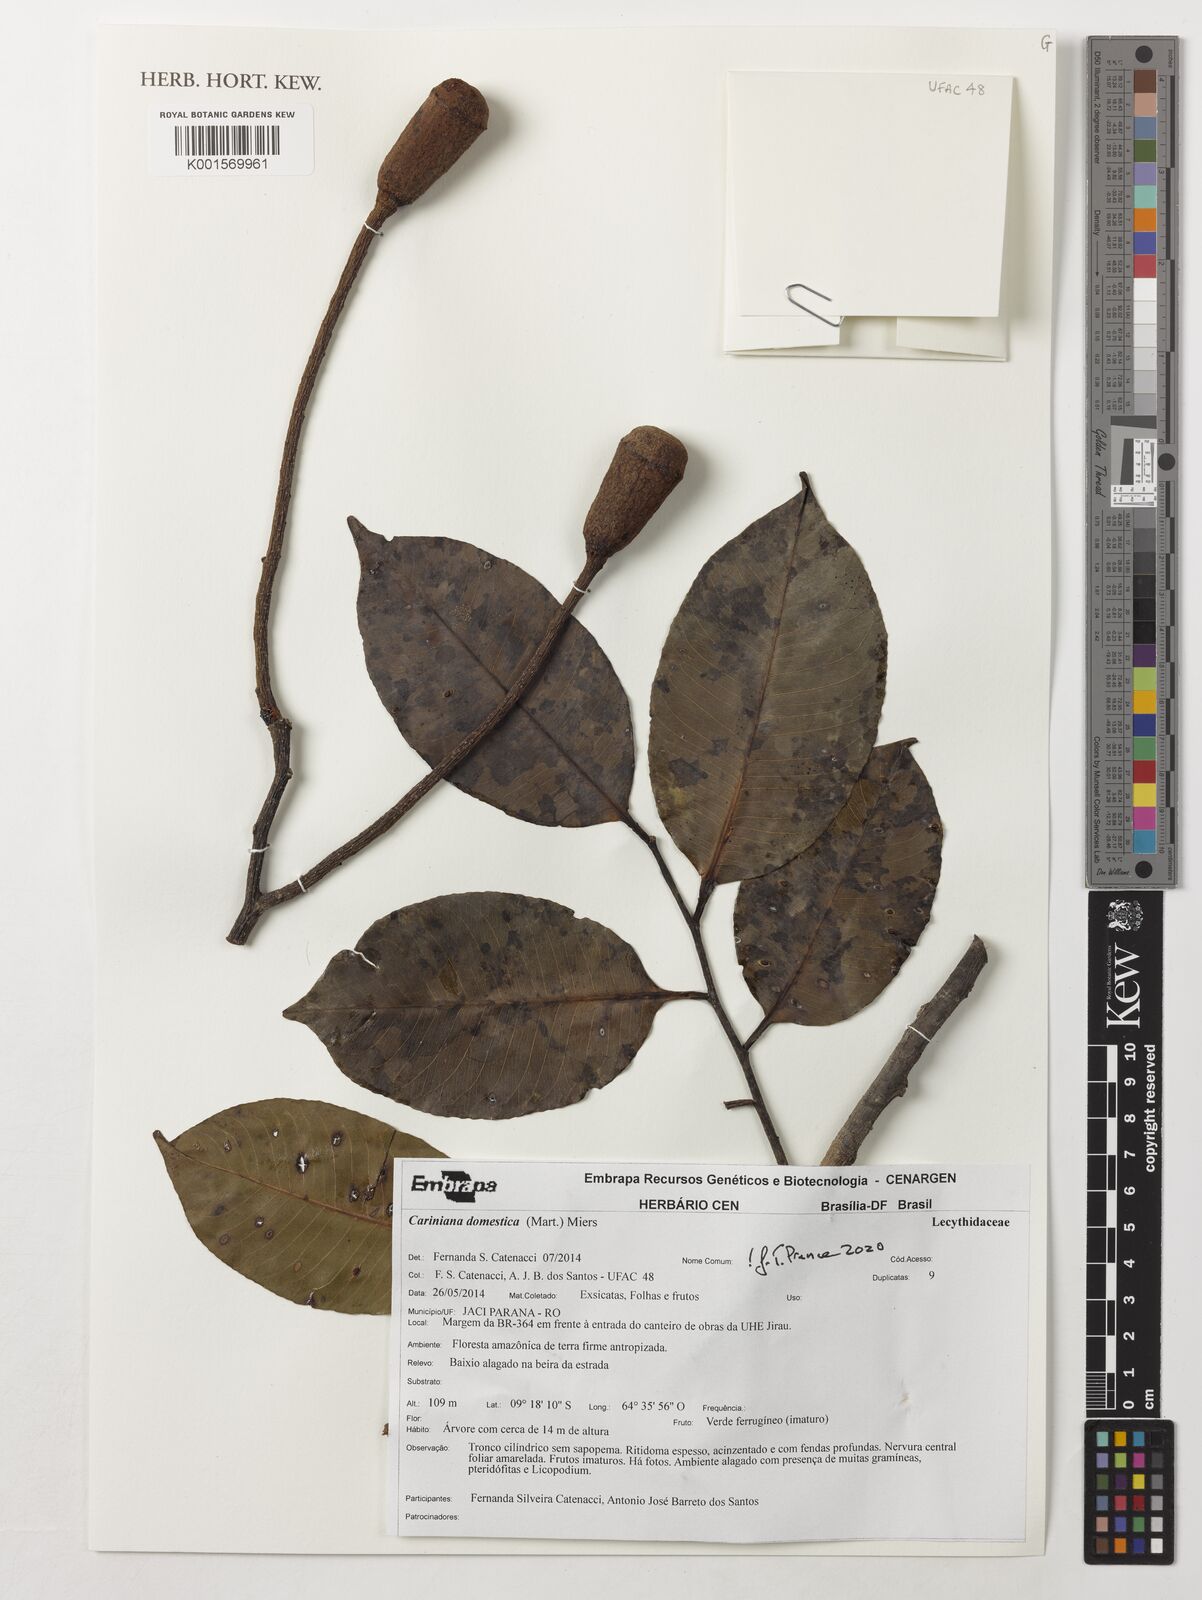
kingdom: Plantae
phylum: Tracheophyta
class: Magnoliopsida
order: Ericales
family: Lecythidaceae
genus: Cariniana
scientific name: Cariniana domestica
